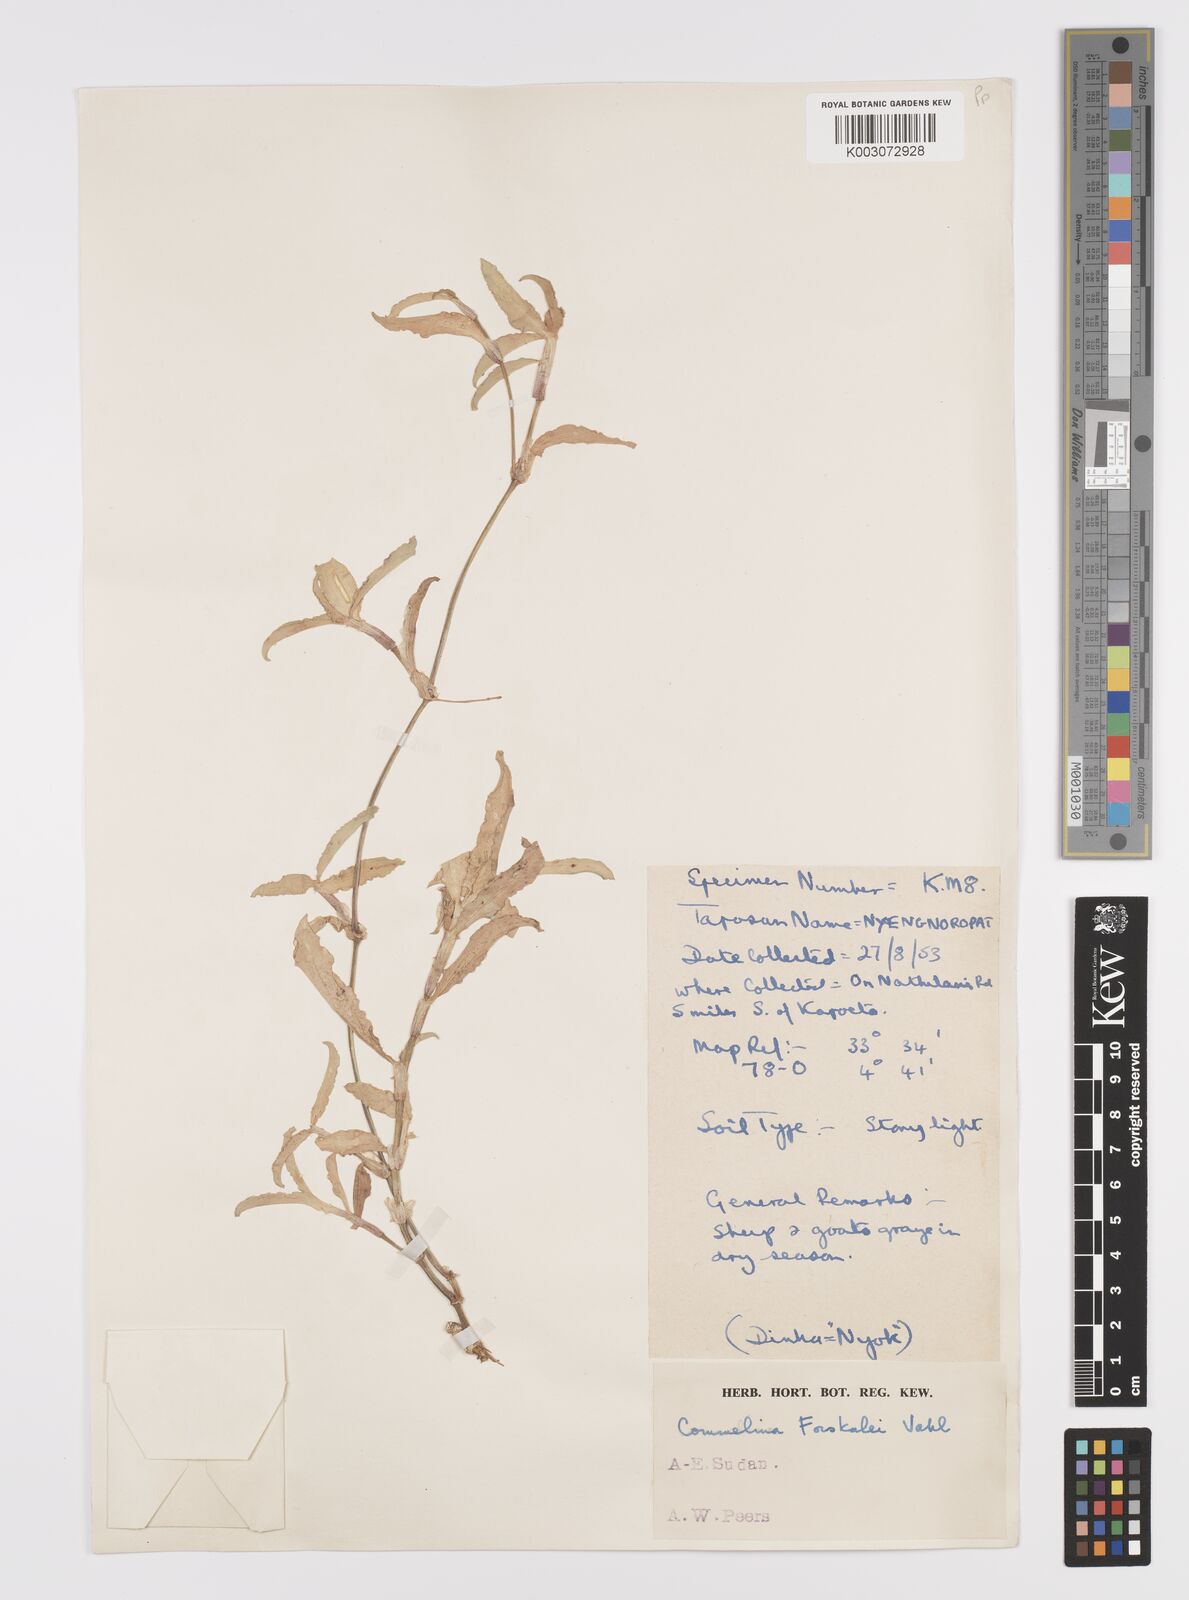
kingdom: Plantae
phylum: Tracheophyta
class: Liliopsida
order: Commelinales
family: Commelinaceae
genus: Commelina
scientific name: Commelina forskaolii
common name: Rat's ear
